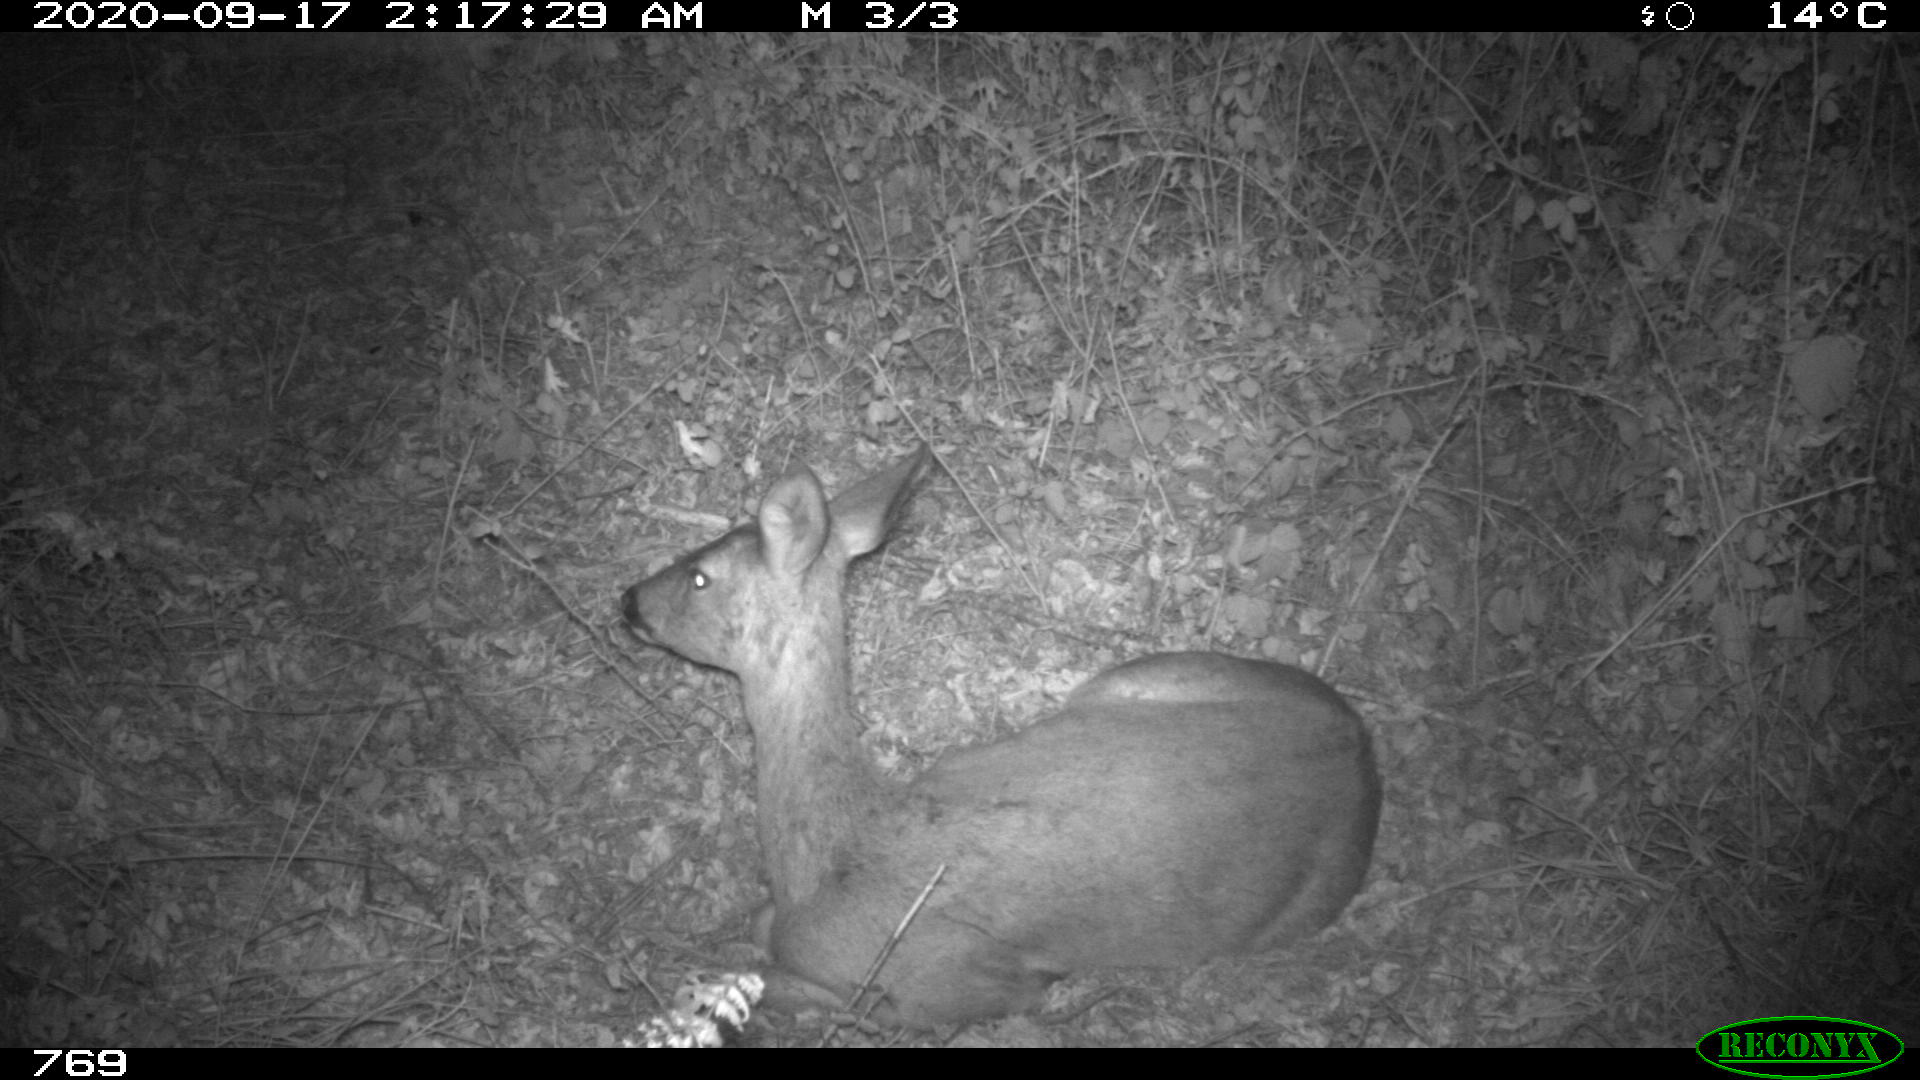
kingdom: Animalia
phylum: Chordata
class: Mammalia
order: Artiodactyla
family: Cervidae
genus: Capreolus
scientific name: Capreolus capreolus
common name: Western roe deer
